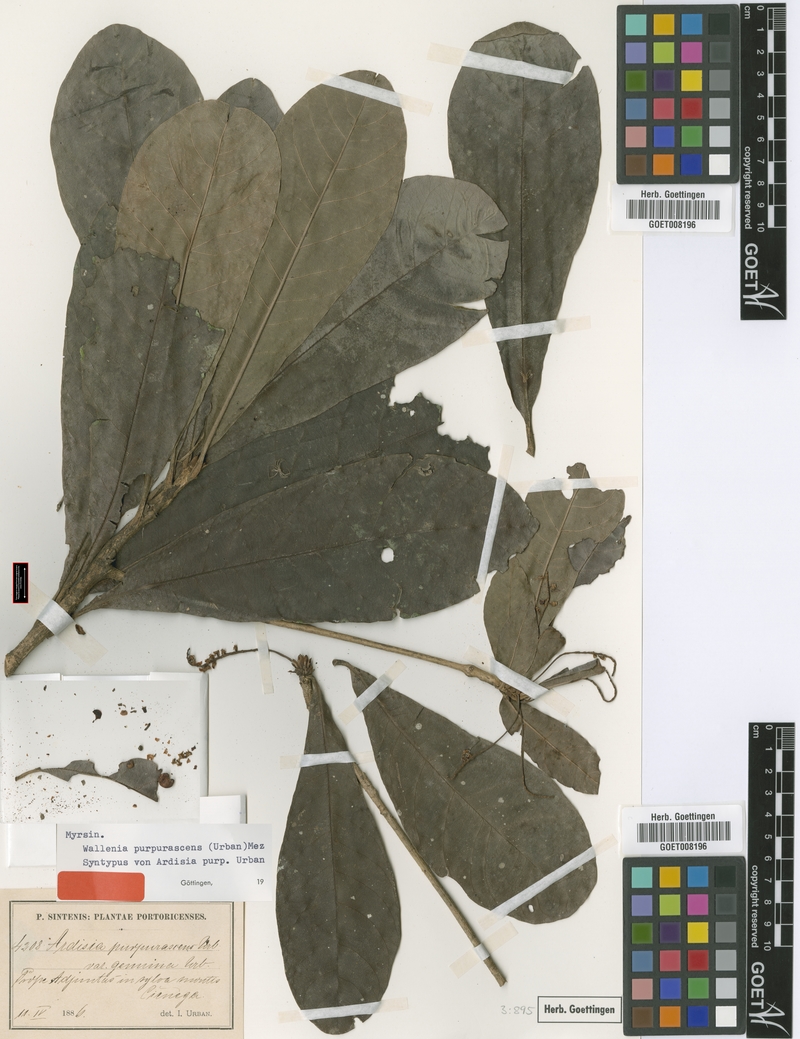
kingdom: Plantae
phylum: Tracheophyta
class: Magnoliopsida
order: Ericales
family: Primulaceae
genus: Wallenia
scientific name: Wallenia lamarckiana
